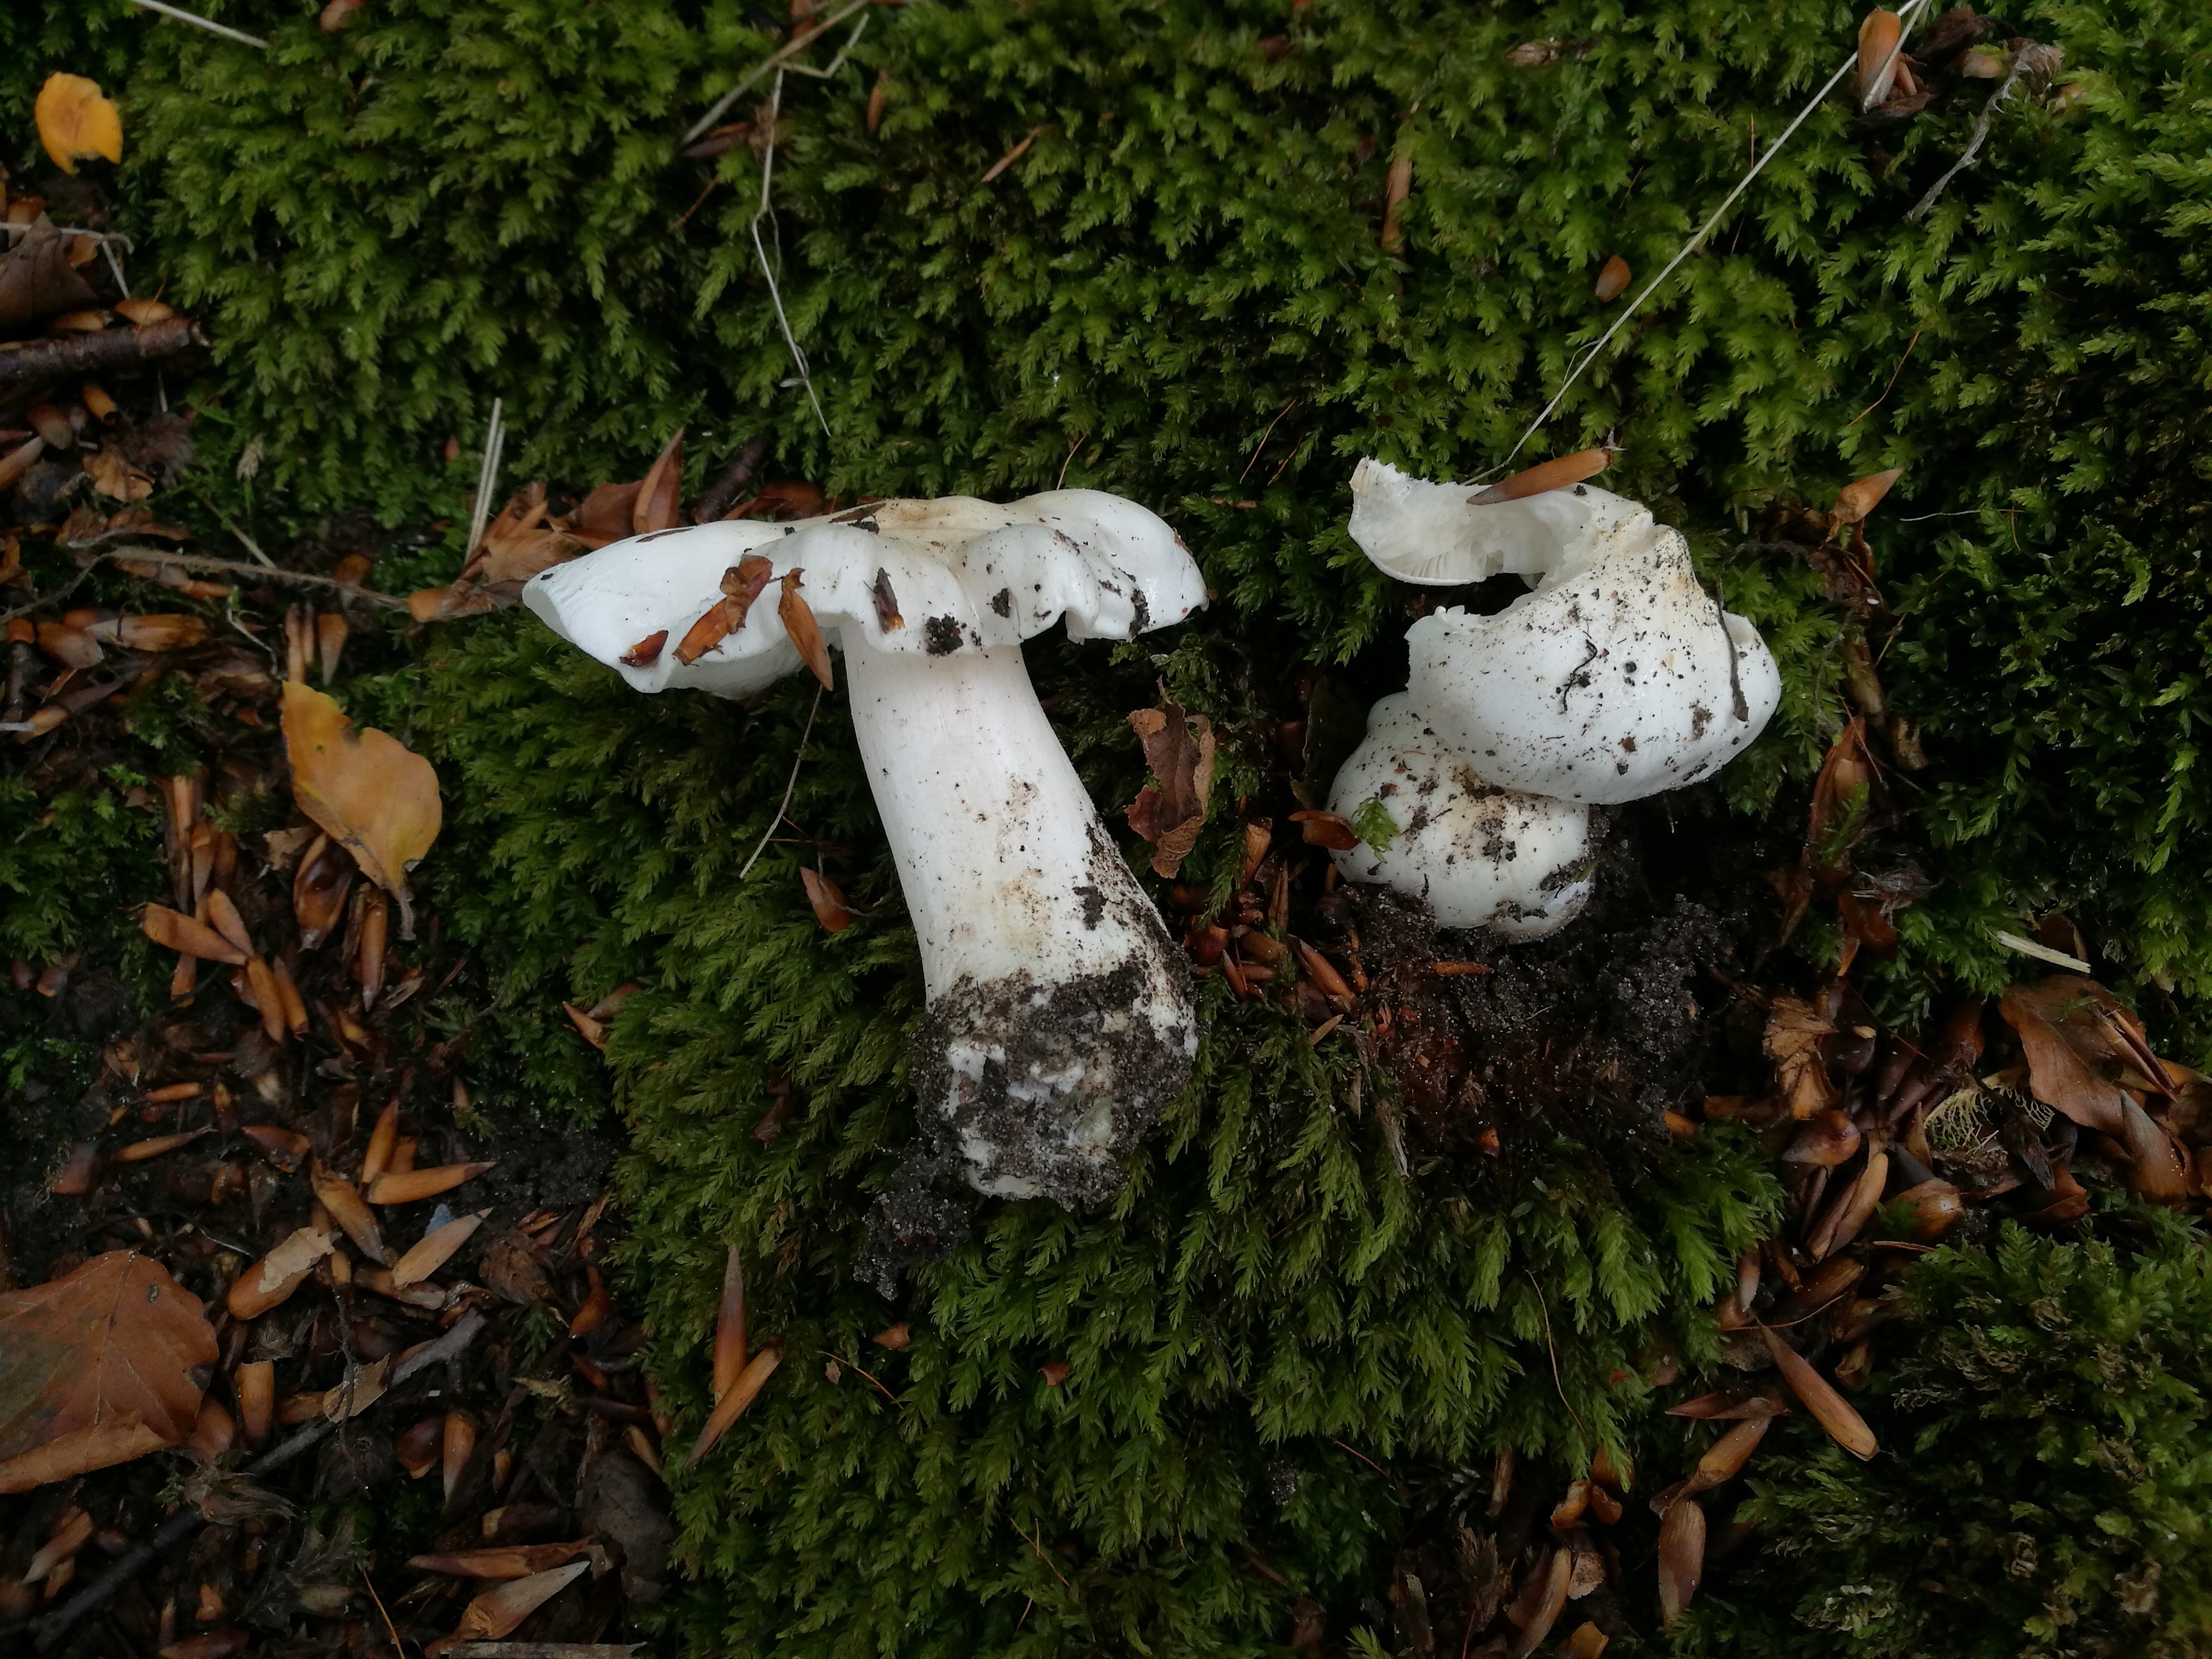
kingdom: Fungi
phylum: Basidiomycota
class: Agaricomycetes
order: Agaricales
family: Tricholomataceae
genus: Tricholoma
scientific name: Tricholoma columbetta
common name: silke-ridderhat
